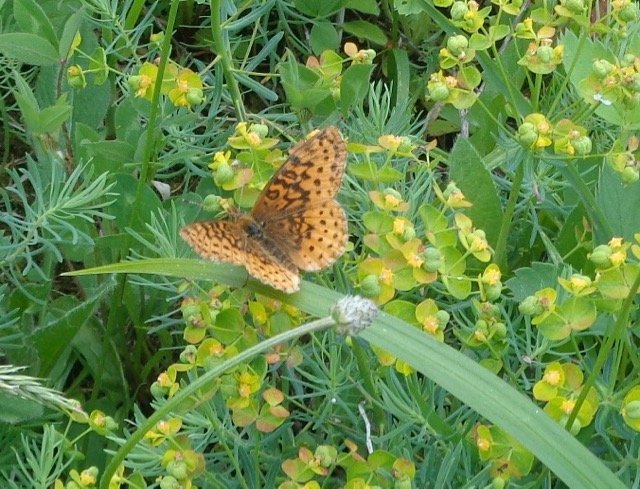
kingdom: Animalia
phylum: Arthropoda
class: Insecta
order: Lepidoptera
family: Nymphalidae
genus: Clossiana
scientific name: Clossiana toddi
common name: Meadow Fritillary
